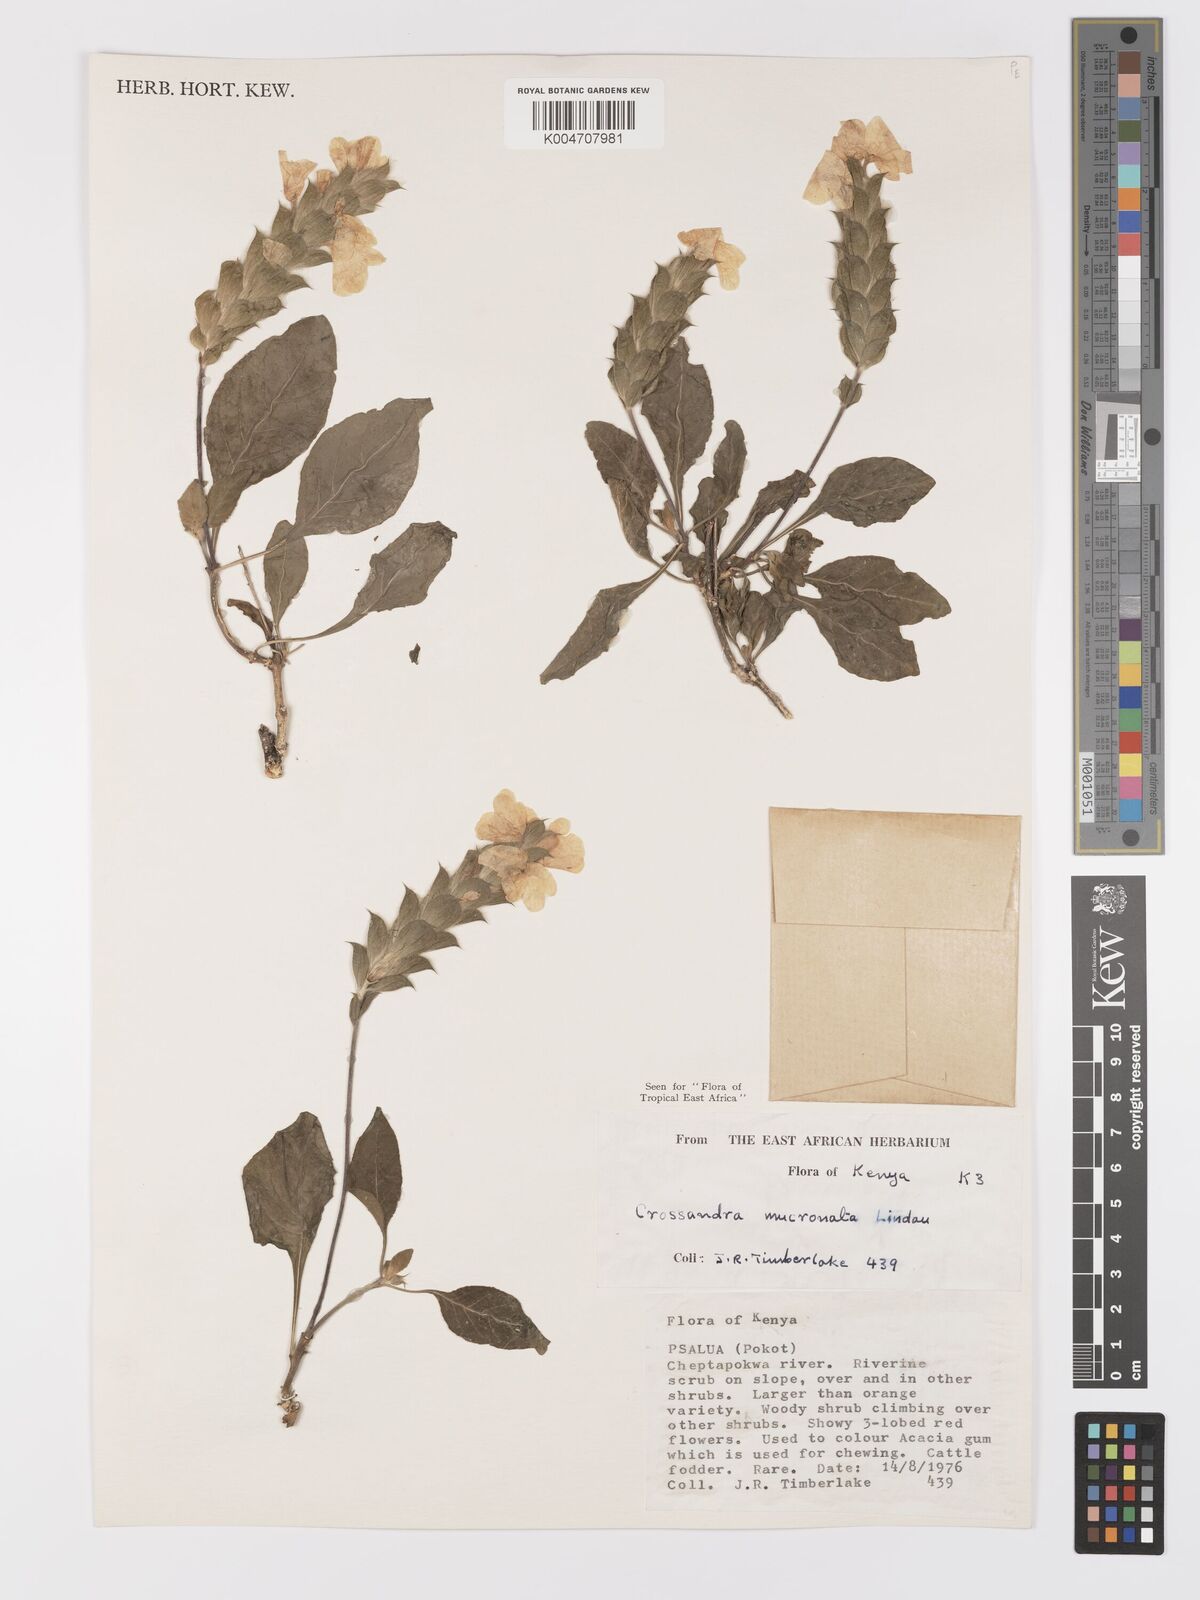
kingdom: Plantae
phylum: Tracheophyta
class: Magnoliopsida
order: Lamiales
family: Acanthaceae
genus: Crossandra
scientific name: Crossandra mucronata
